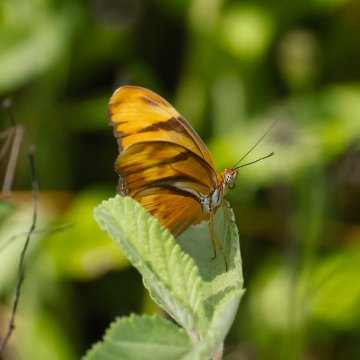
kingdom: Animalia
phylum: Arthropoda
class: Insecta
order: Lepidoptera
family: Nymphalidae
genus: Dryas
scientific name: Dryas iulia
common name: Julia
